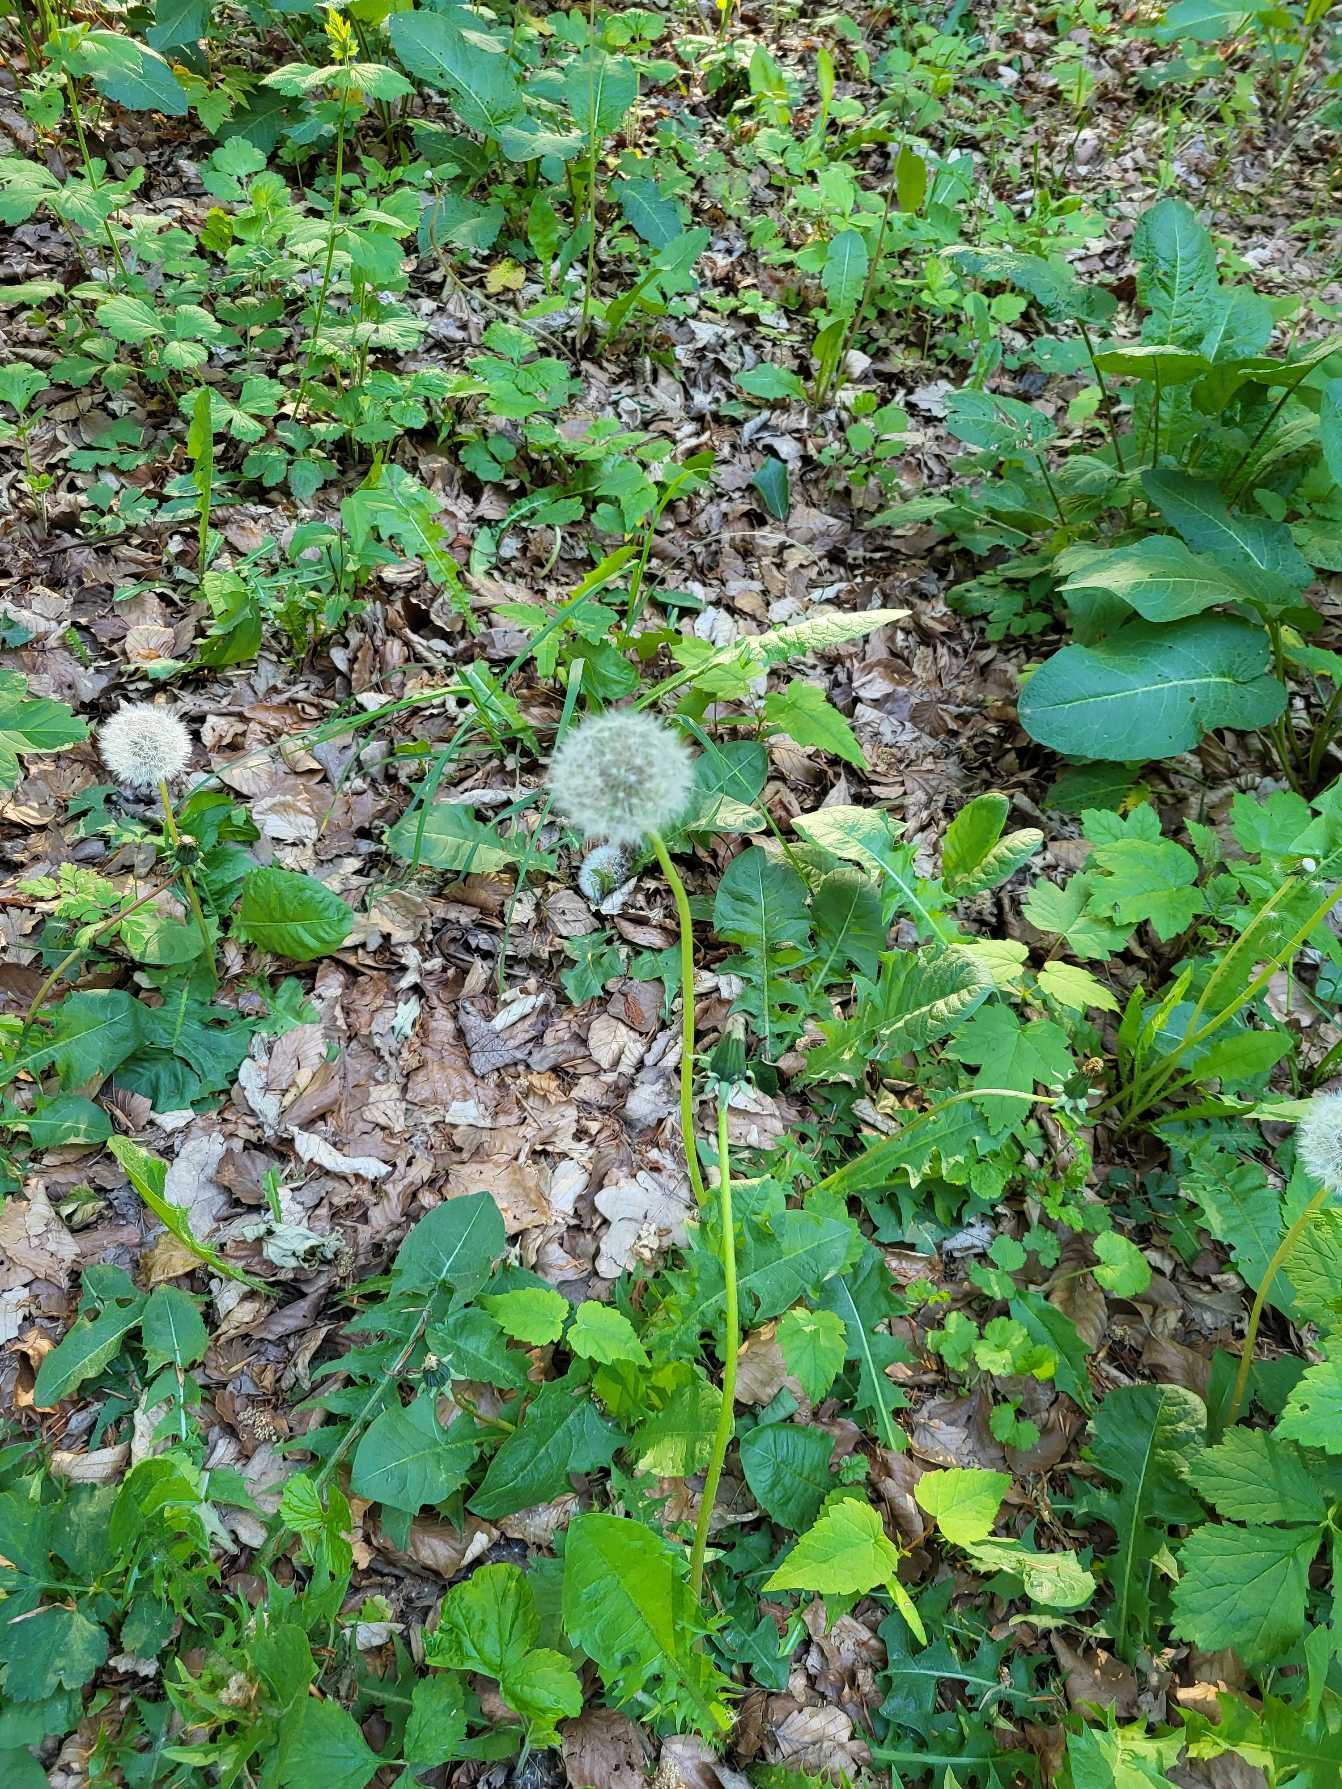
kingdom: Plantae
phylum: Tracheophyta
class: Magnoliopsida
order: Asterales
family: Asteraceae
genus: Taraxacum
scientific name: Taraxacum
